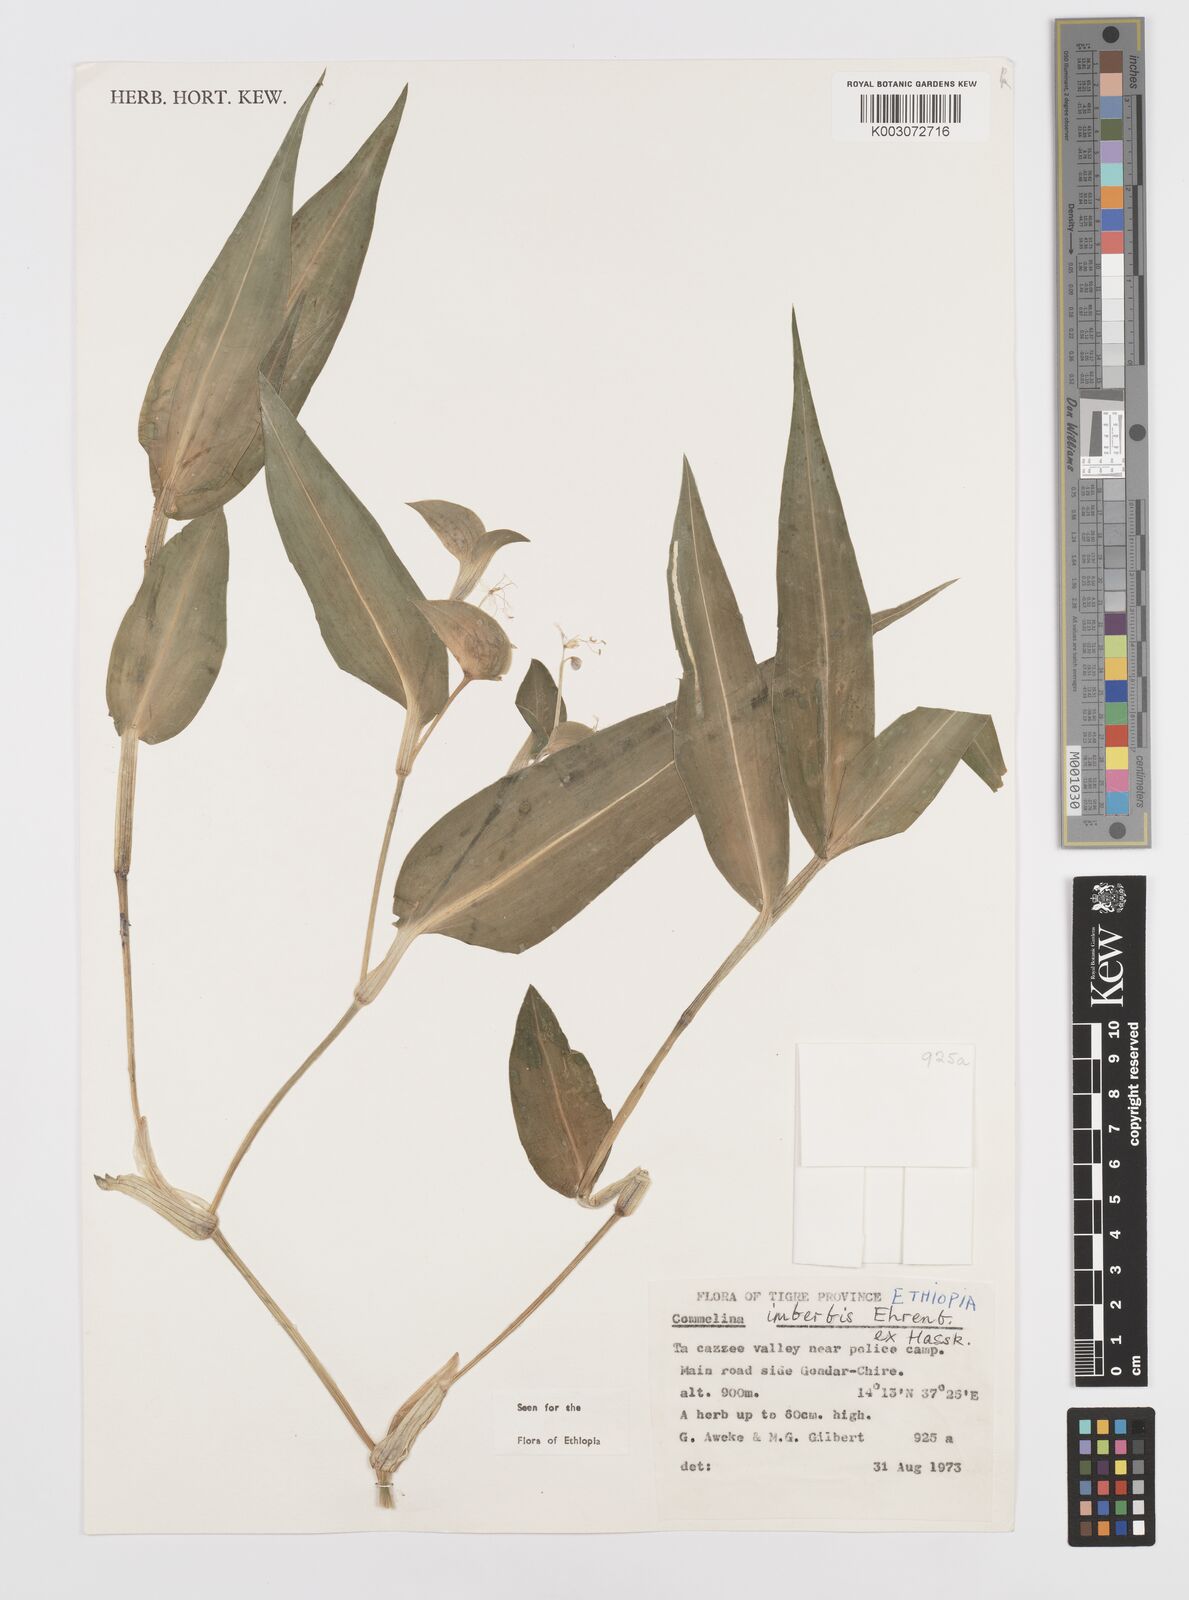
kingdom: Plantae
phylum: Tracheophyta
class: Liliopsida
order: Commelinales
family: Commelinaceae
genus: Commelina
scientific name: Commelina imberbis
